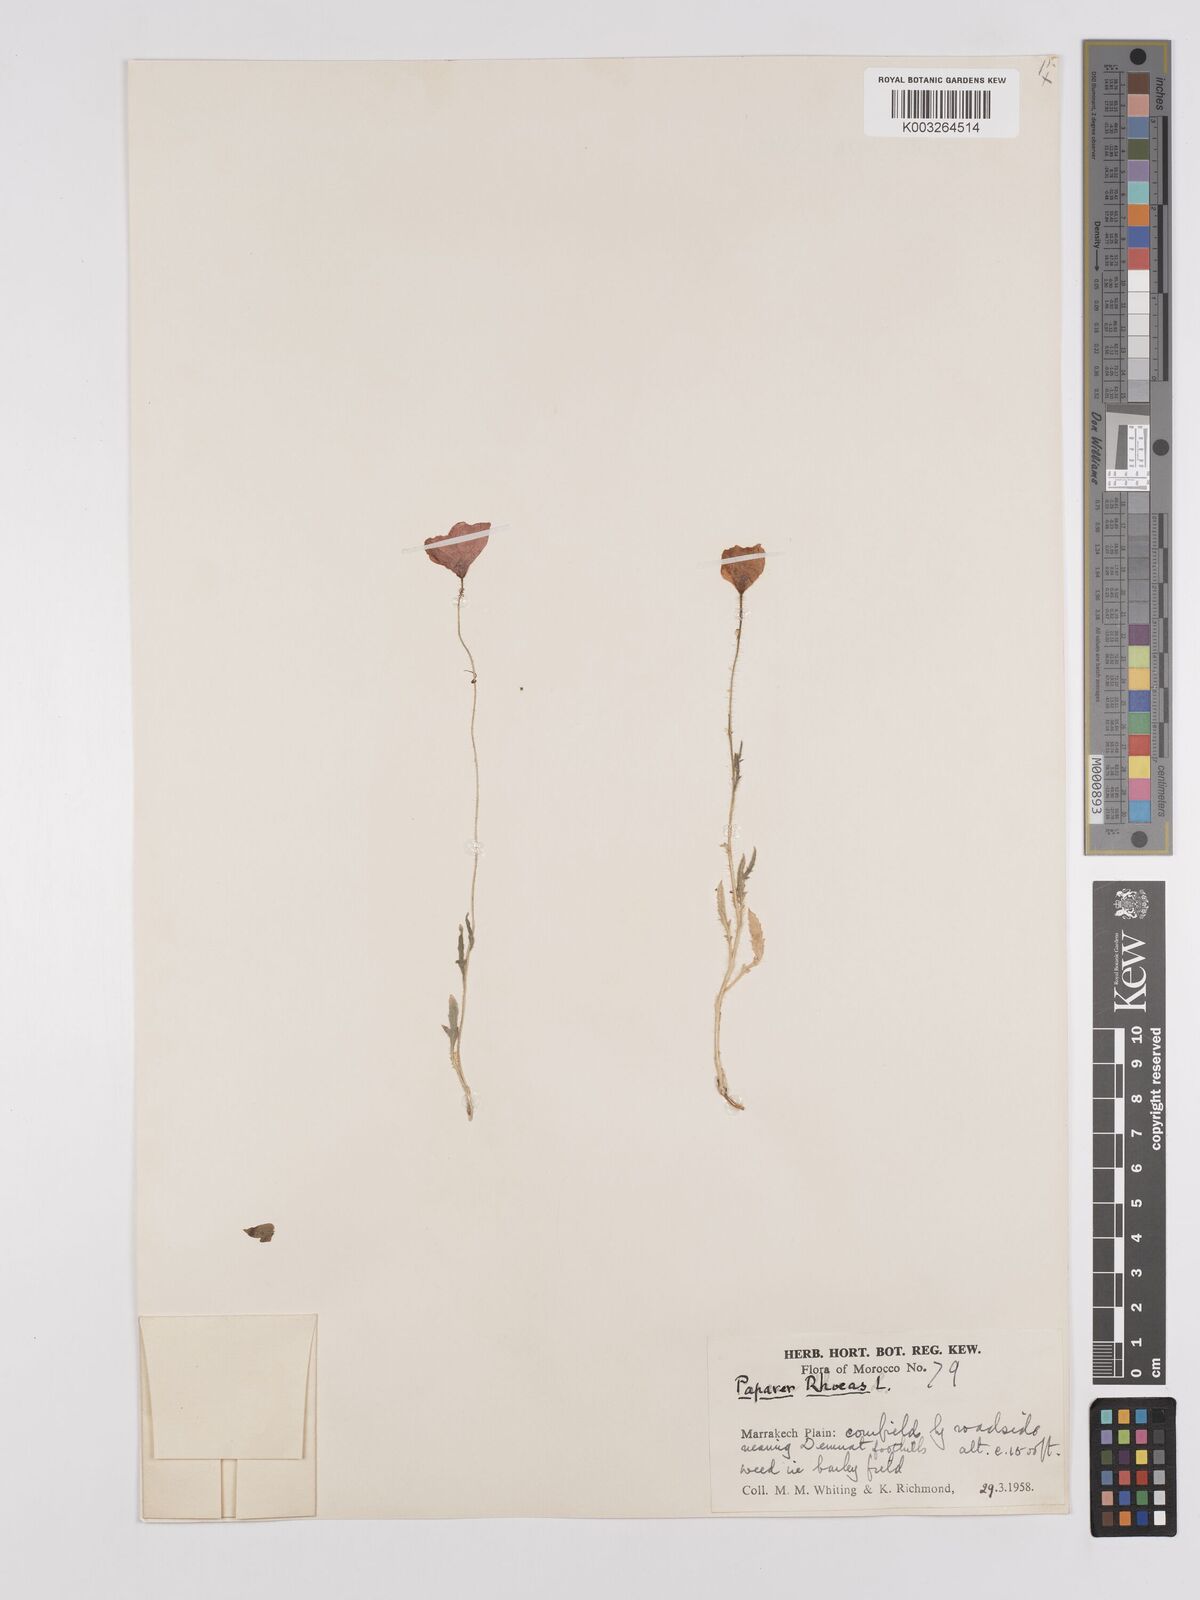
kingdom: Plantae
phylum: Tracheophyta
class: Magnoliopsida
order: Ranunculales
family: Papaveraceae
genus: Papaver
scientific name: Papaver rhoeas
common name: Corn poppy
